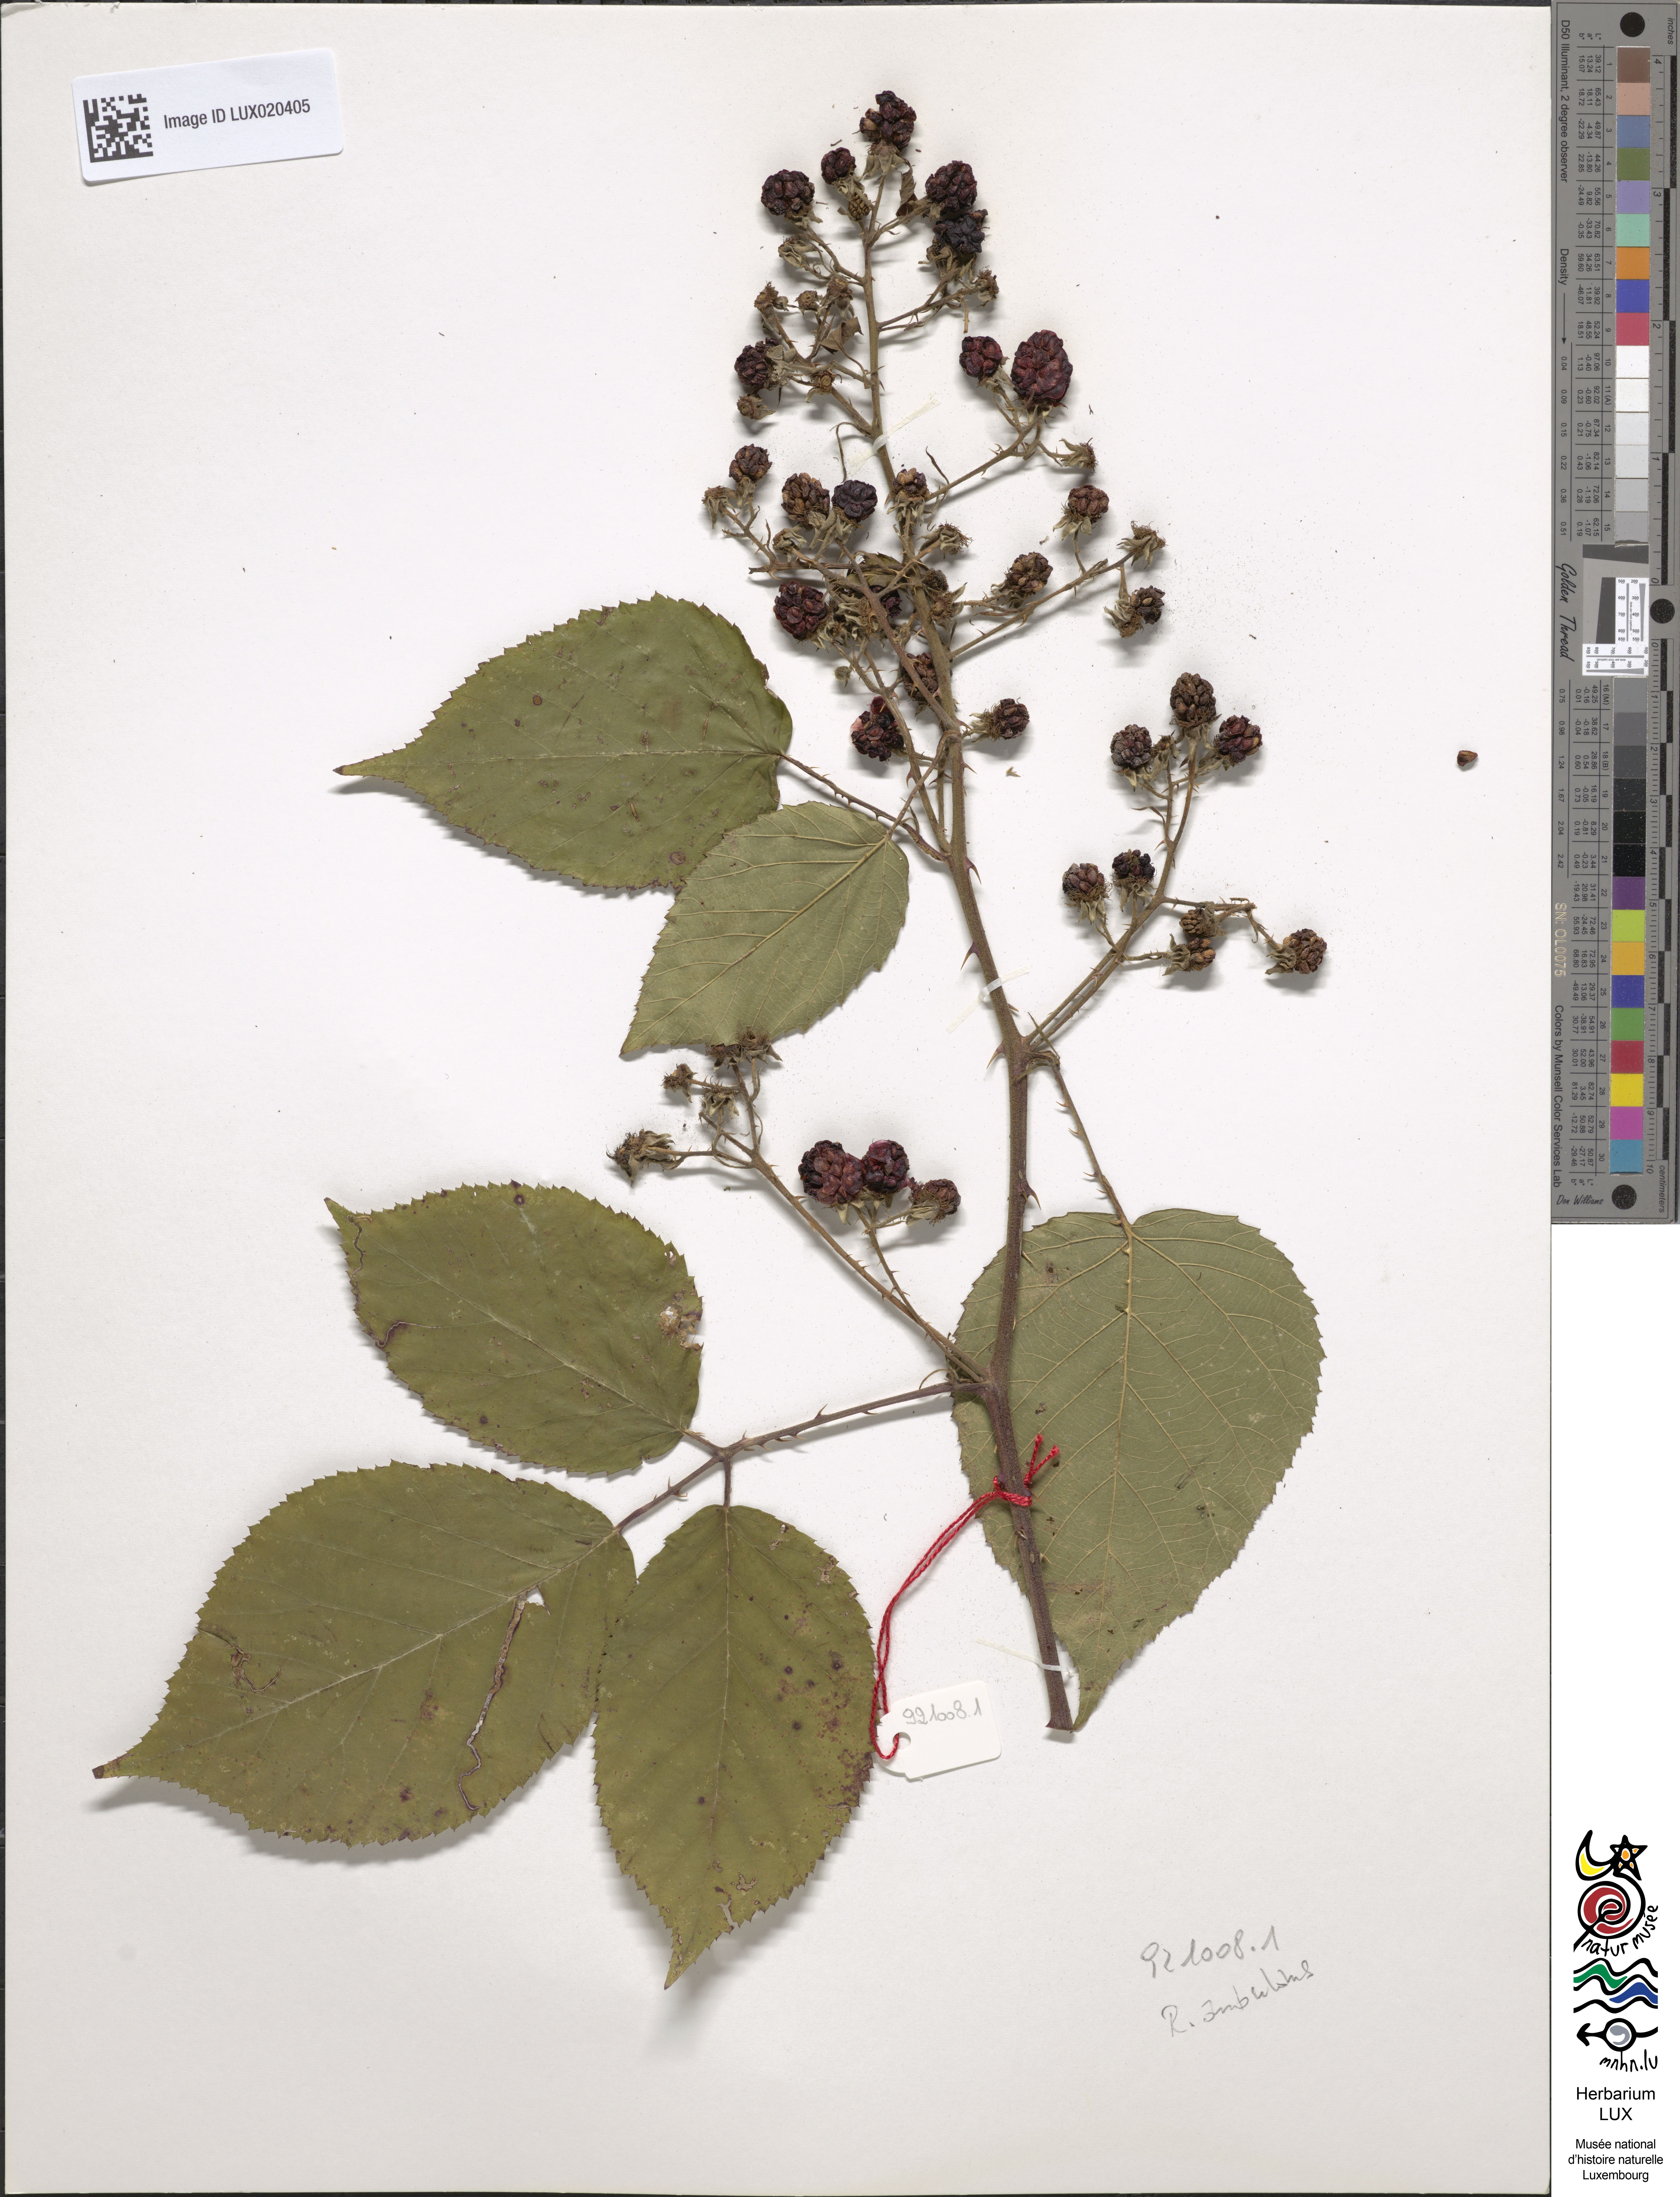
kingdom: Plantae
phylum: Tracheophyta
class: Magnoliopsida
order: Rosales
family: Rosaceae
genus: Rubus
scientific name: Rubus gremlii
